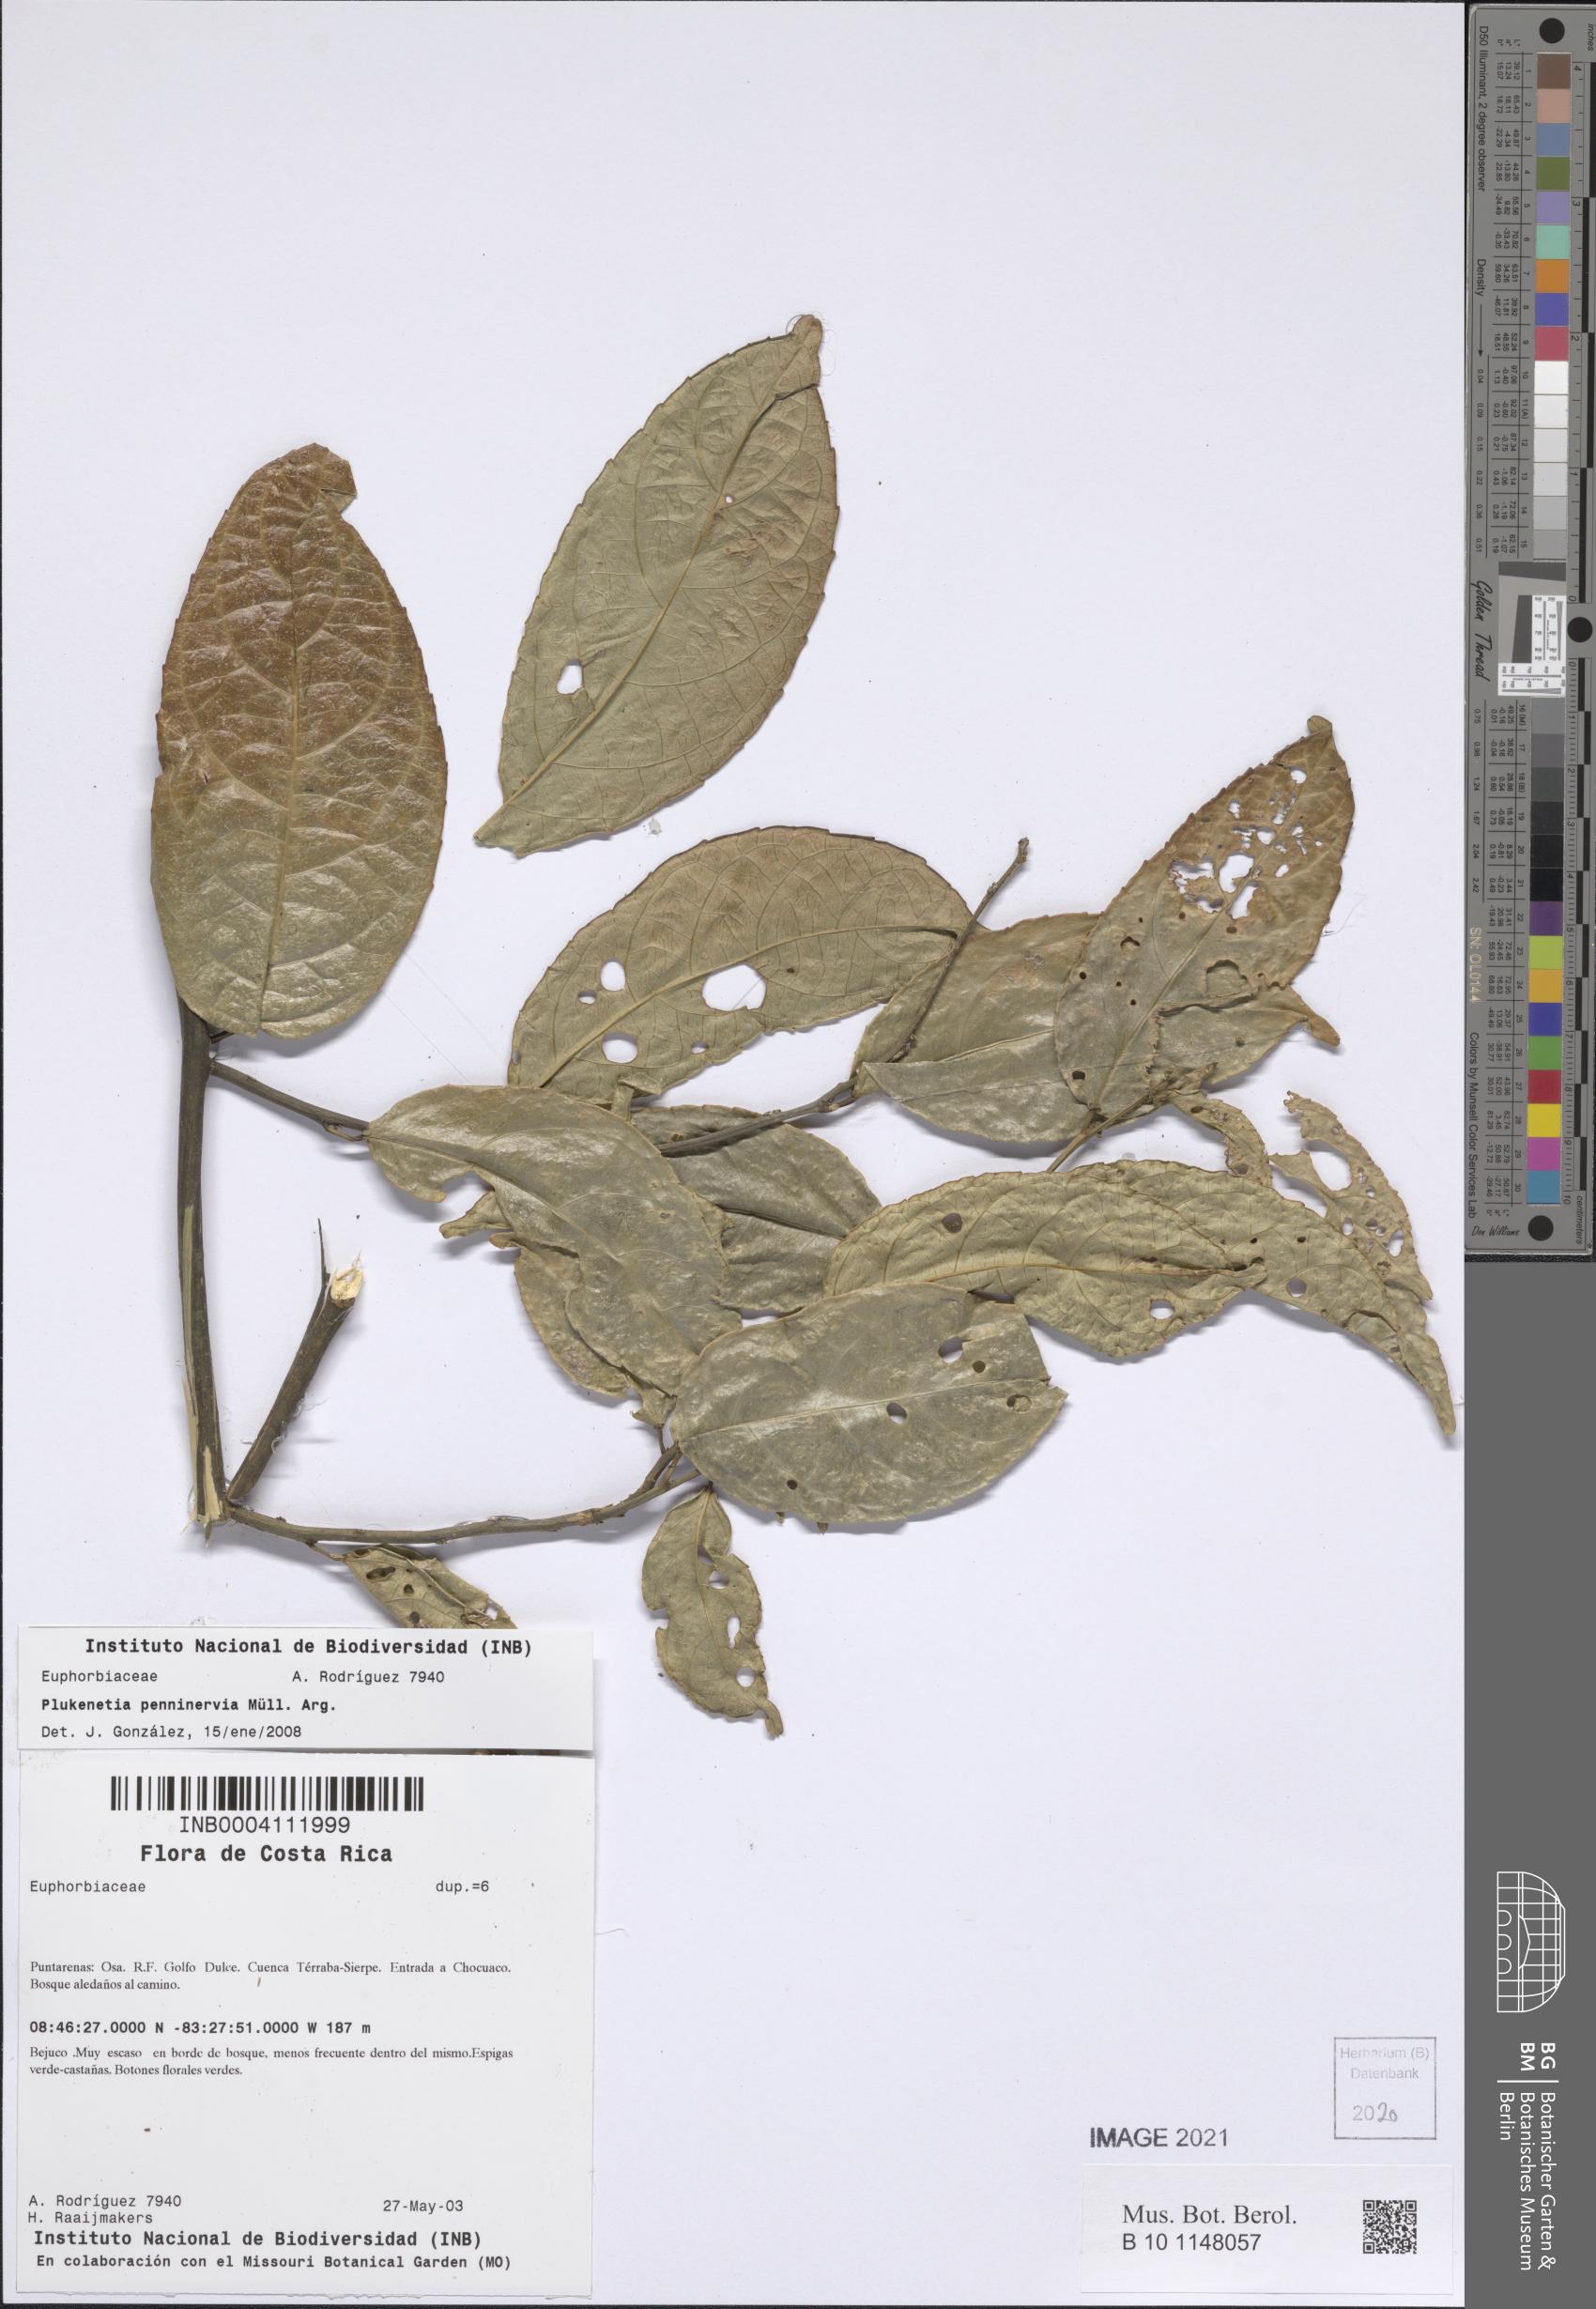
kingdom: Plantae
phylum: Tracheophyta
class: Magnoliopsida
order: Malpighiales
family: Euphorbiaceae
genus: Plukenetia
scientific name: Plukenetia penninervia
